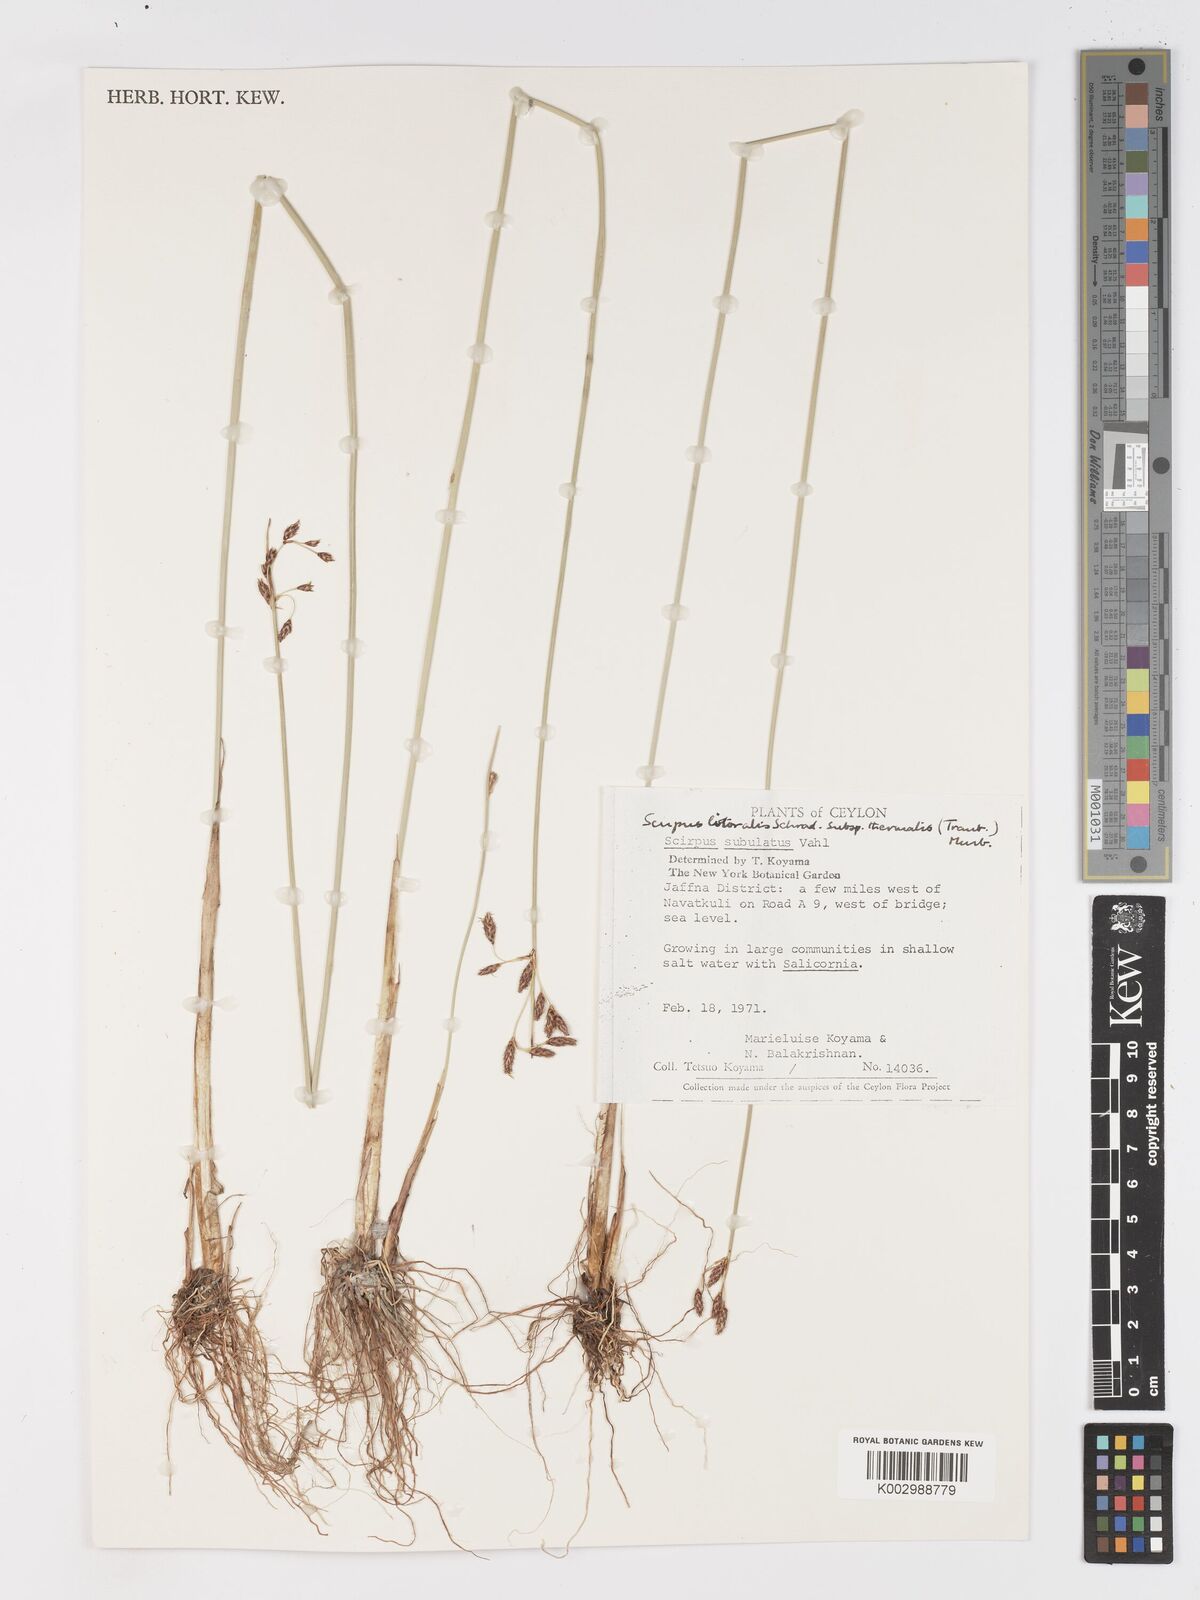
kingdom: Plantae
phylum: Tracheophyta
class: Liliopsida
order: Poales
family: Cyperaceae
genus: Schoenoplectus
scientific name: Schoenoplectus litoralis
